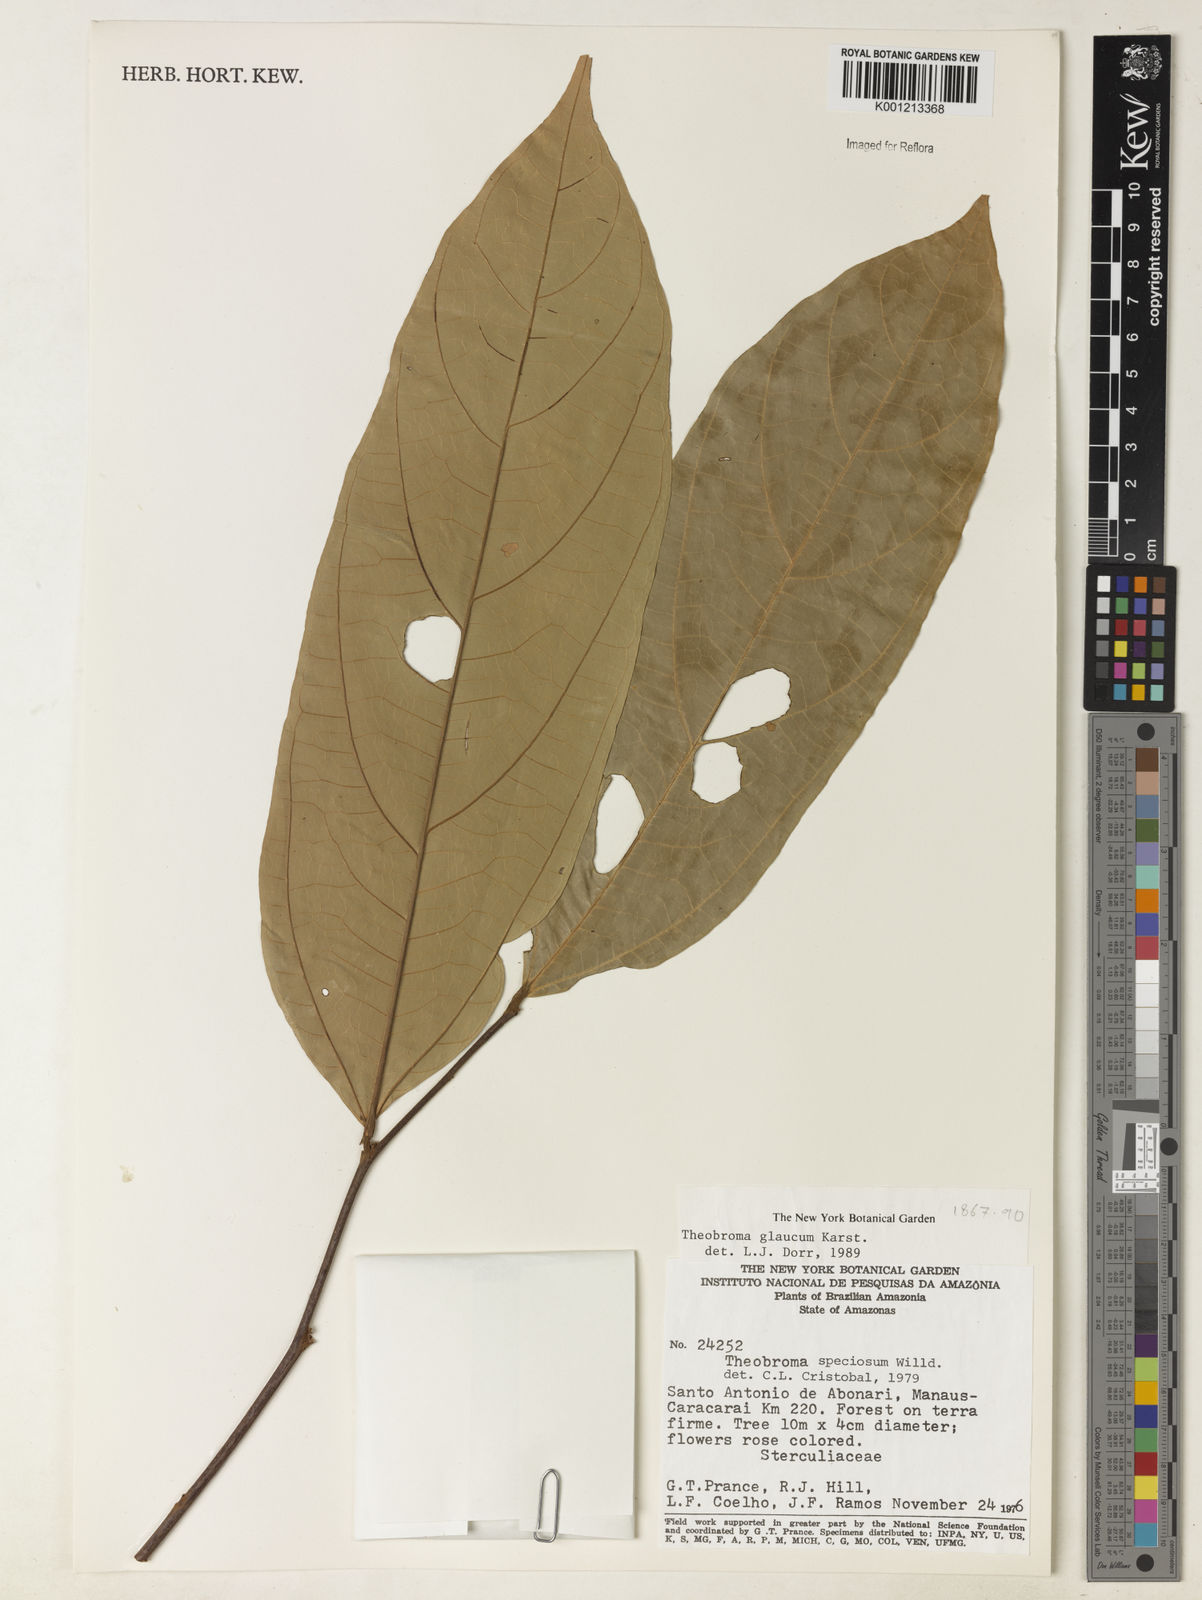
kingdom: Plantae
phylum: Tracheophyta
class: Magnoliopsida
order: Malvales
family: Malvaceae
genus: Theobroma
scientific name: Theobroma sylvestre
